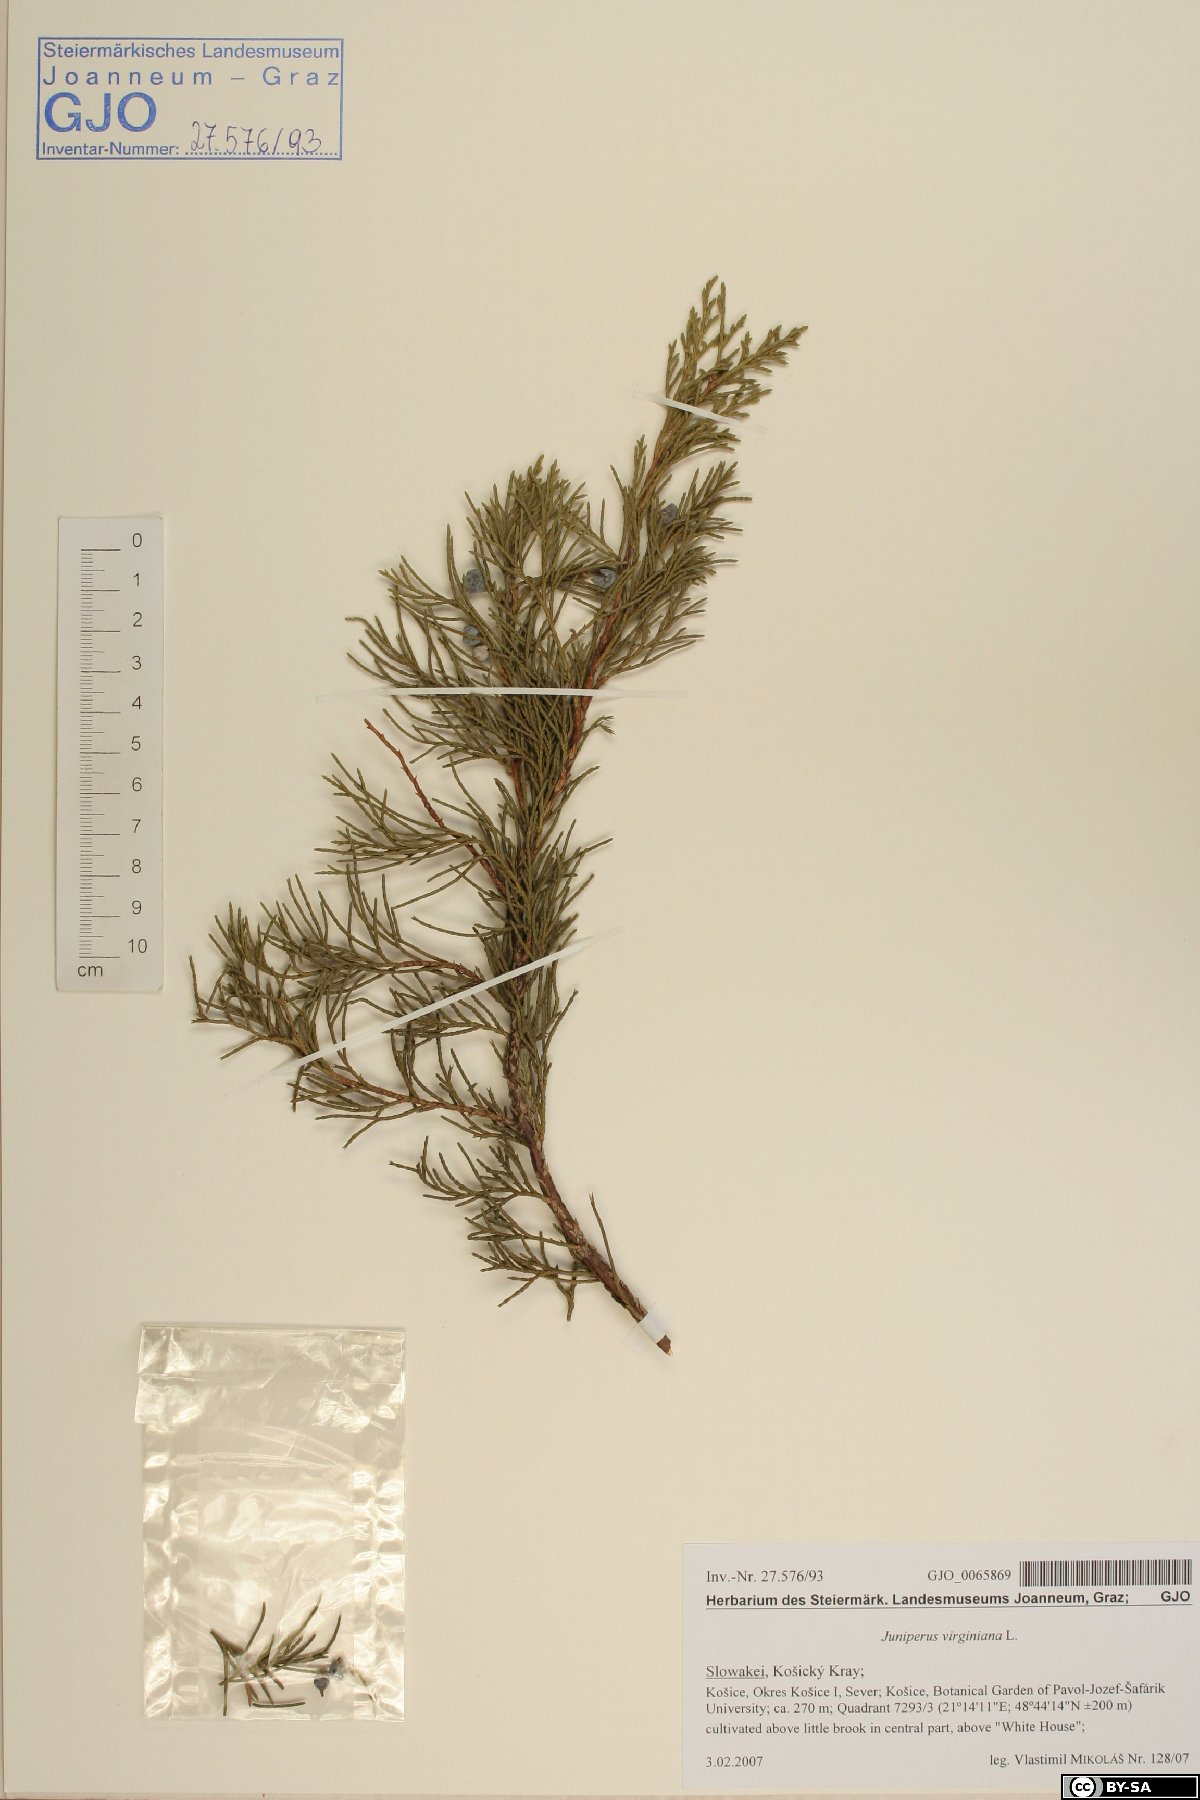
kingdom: Plantae
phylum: Tracheophyta
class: Pinopsida
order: Pinales
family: Cupressaceae
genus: Juniperus
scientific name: Juniperus virginiana
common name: Red juniper
